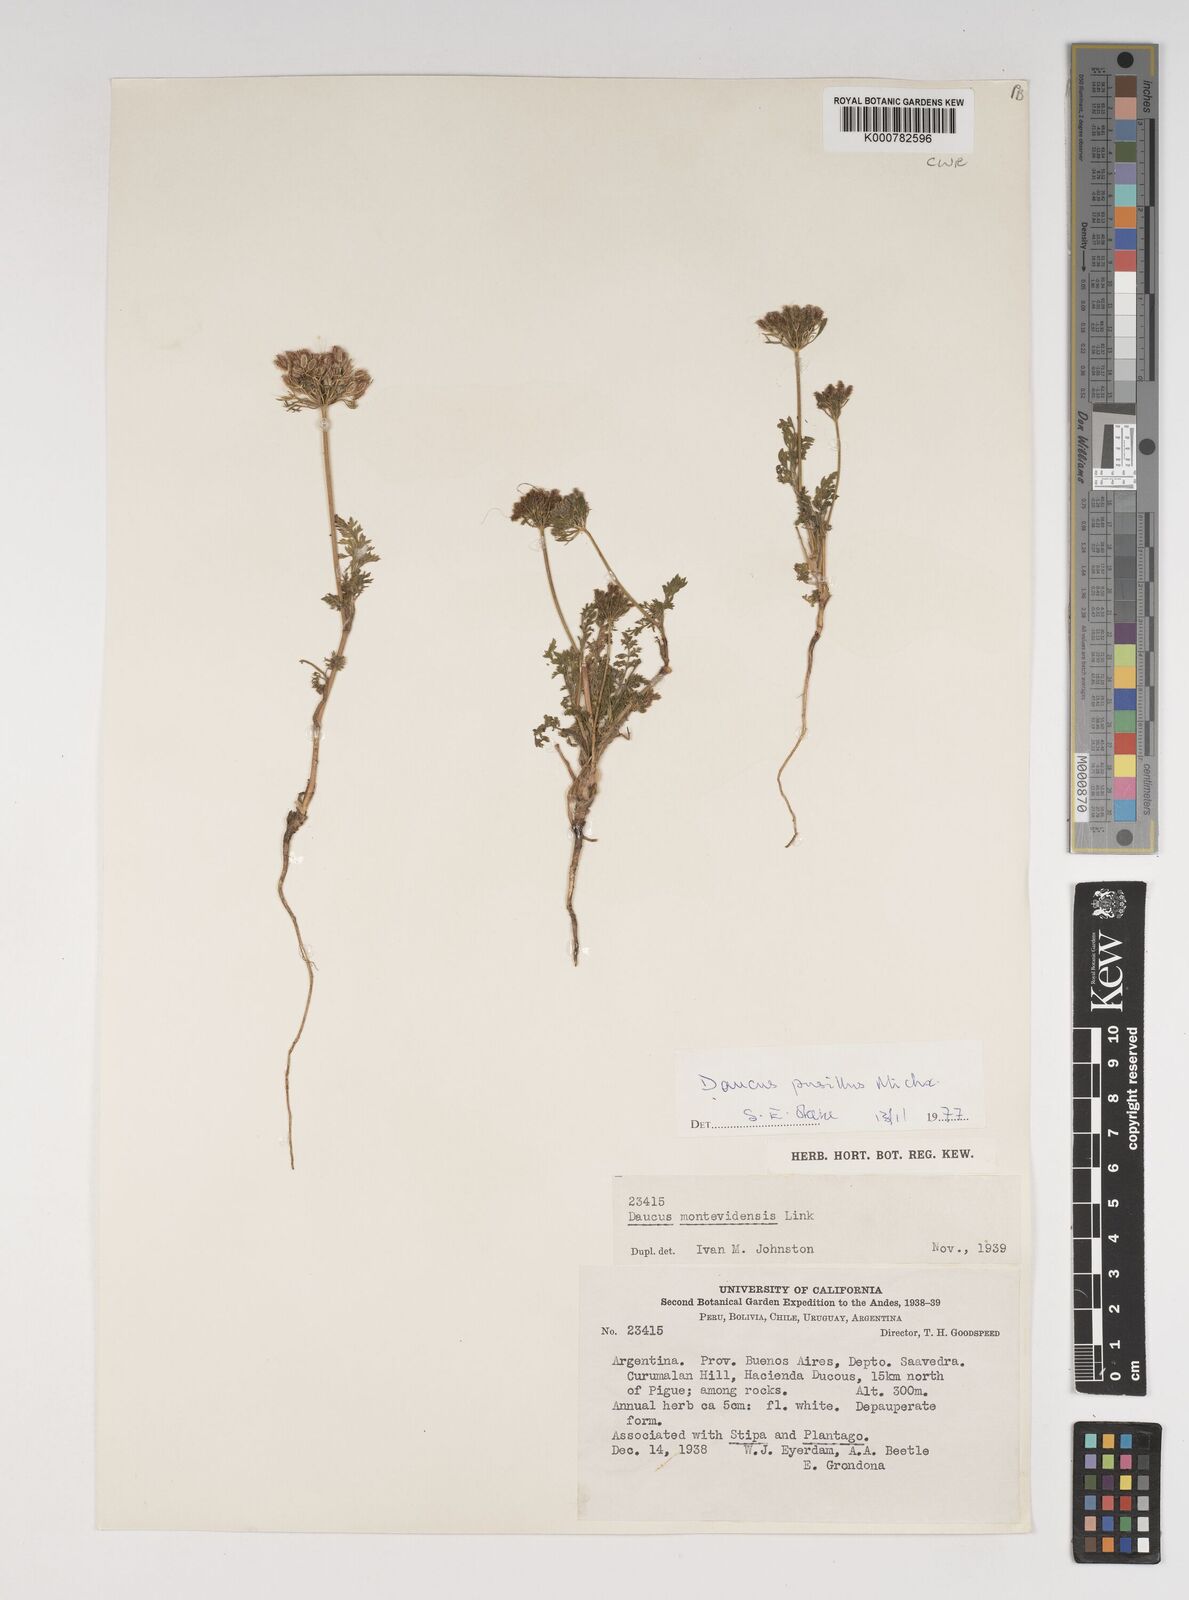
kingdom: Plantae
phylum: Tracheophyta
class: Magnoliopsida
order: Apiales
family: Apiaceae
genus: Daucus
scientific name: Daucus pusillus
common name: Southwest wild carrot
